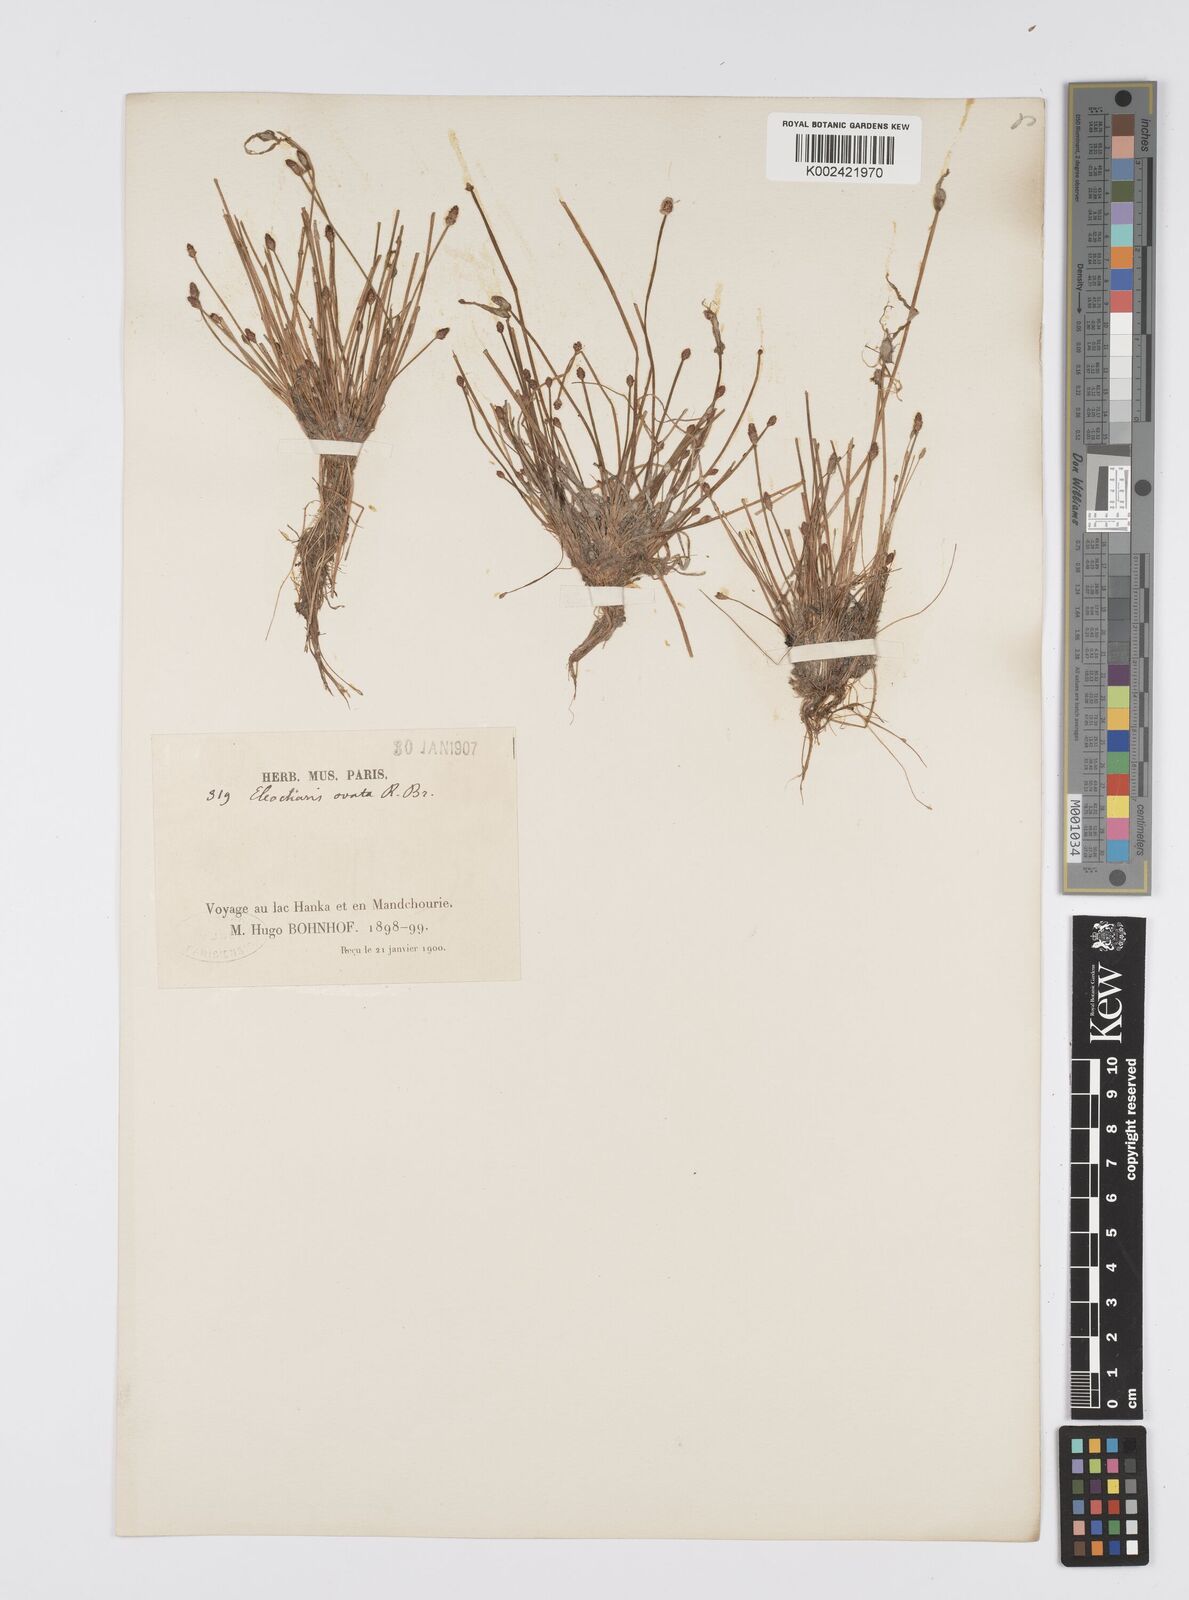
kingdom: Plantae
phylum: Tracheophyta
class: Liliopsida
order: Poales
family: Cyperaceae
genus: Eleocharis
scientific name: Eleocharis ovata
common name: Oval spike-rush
